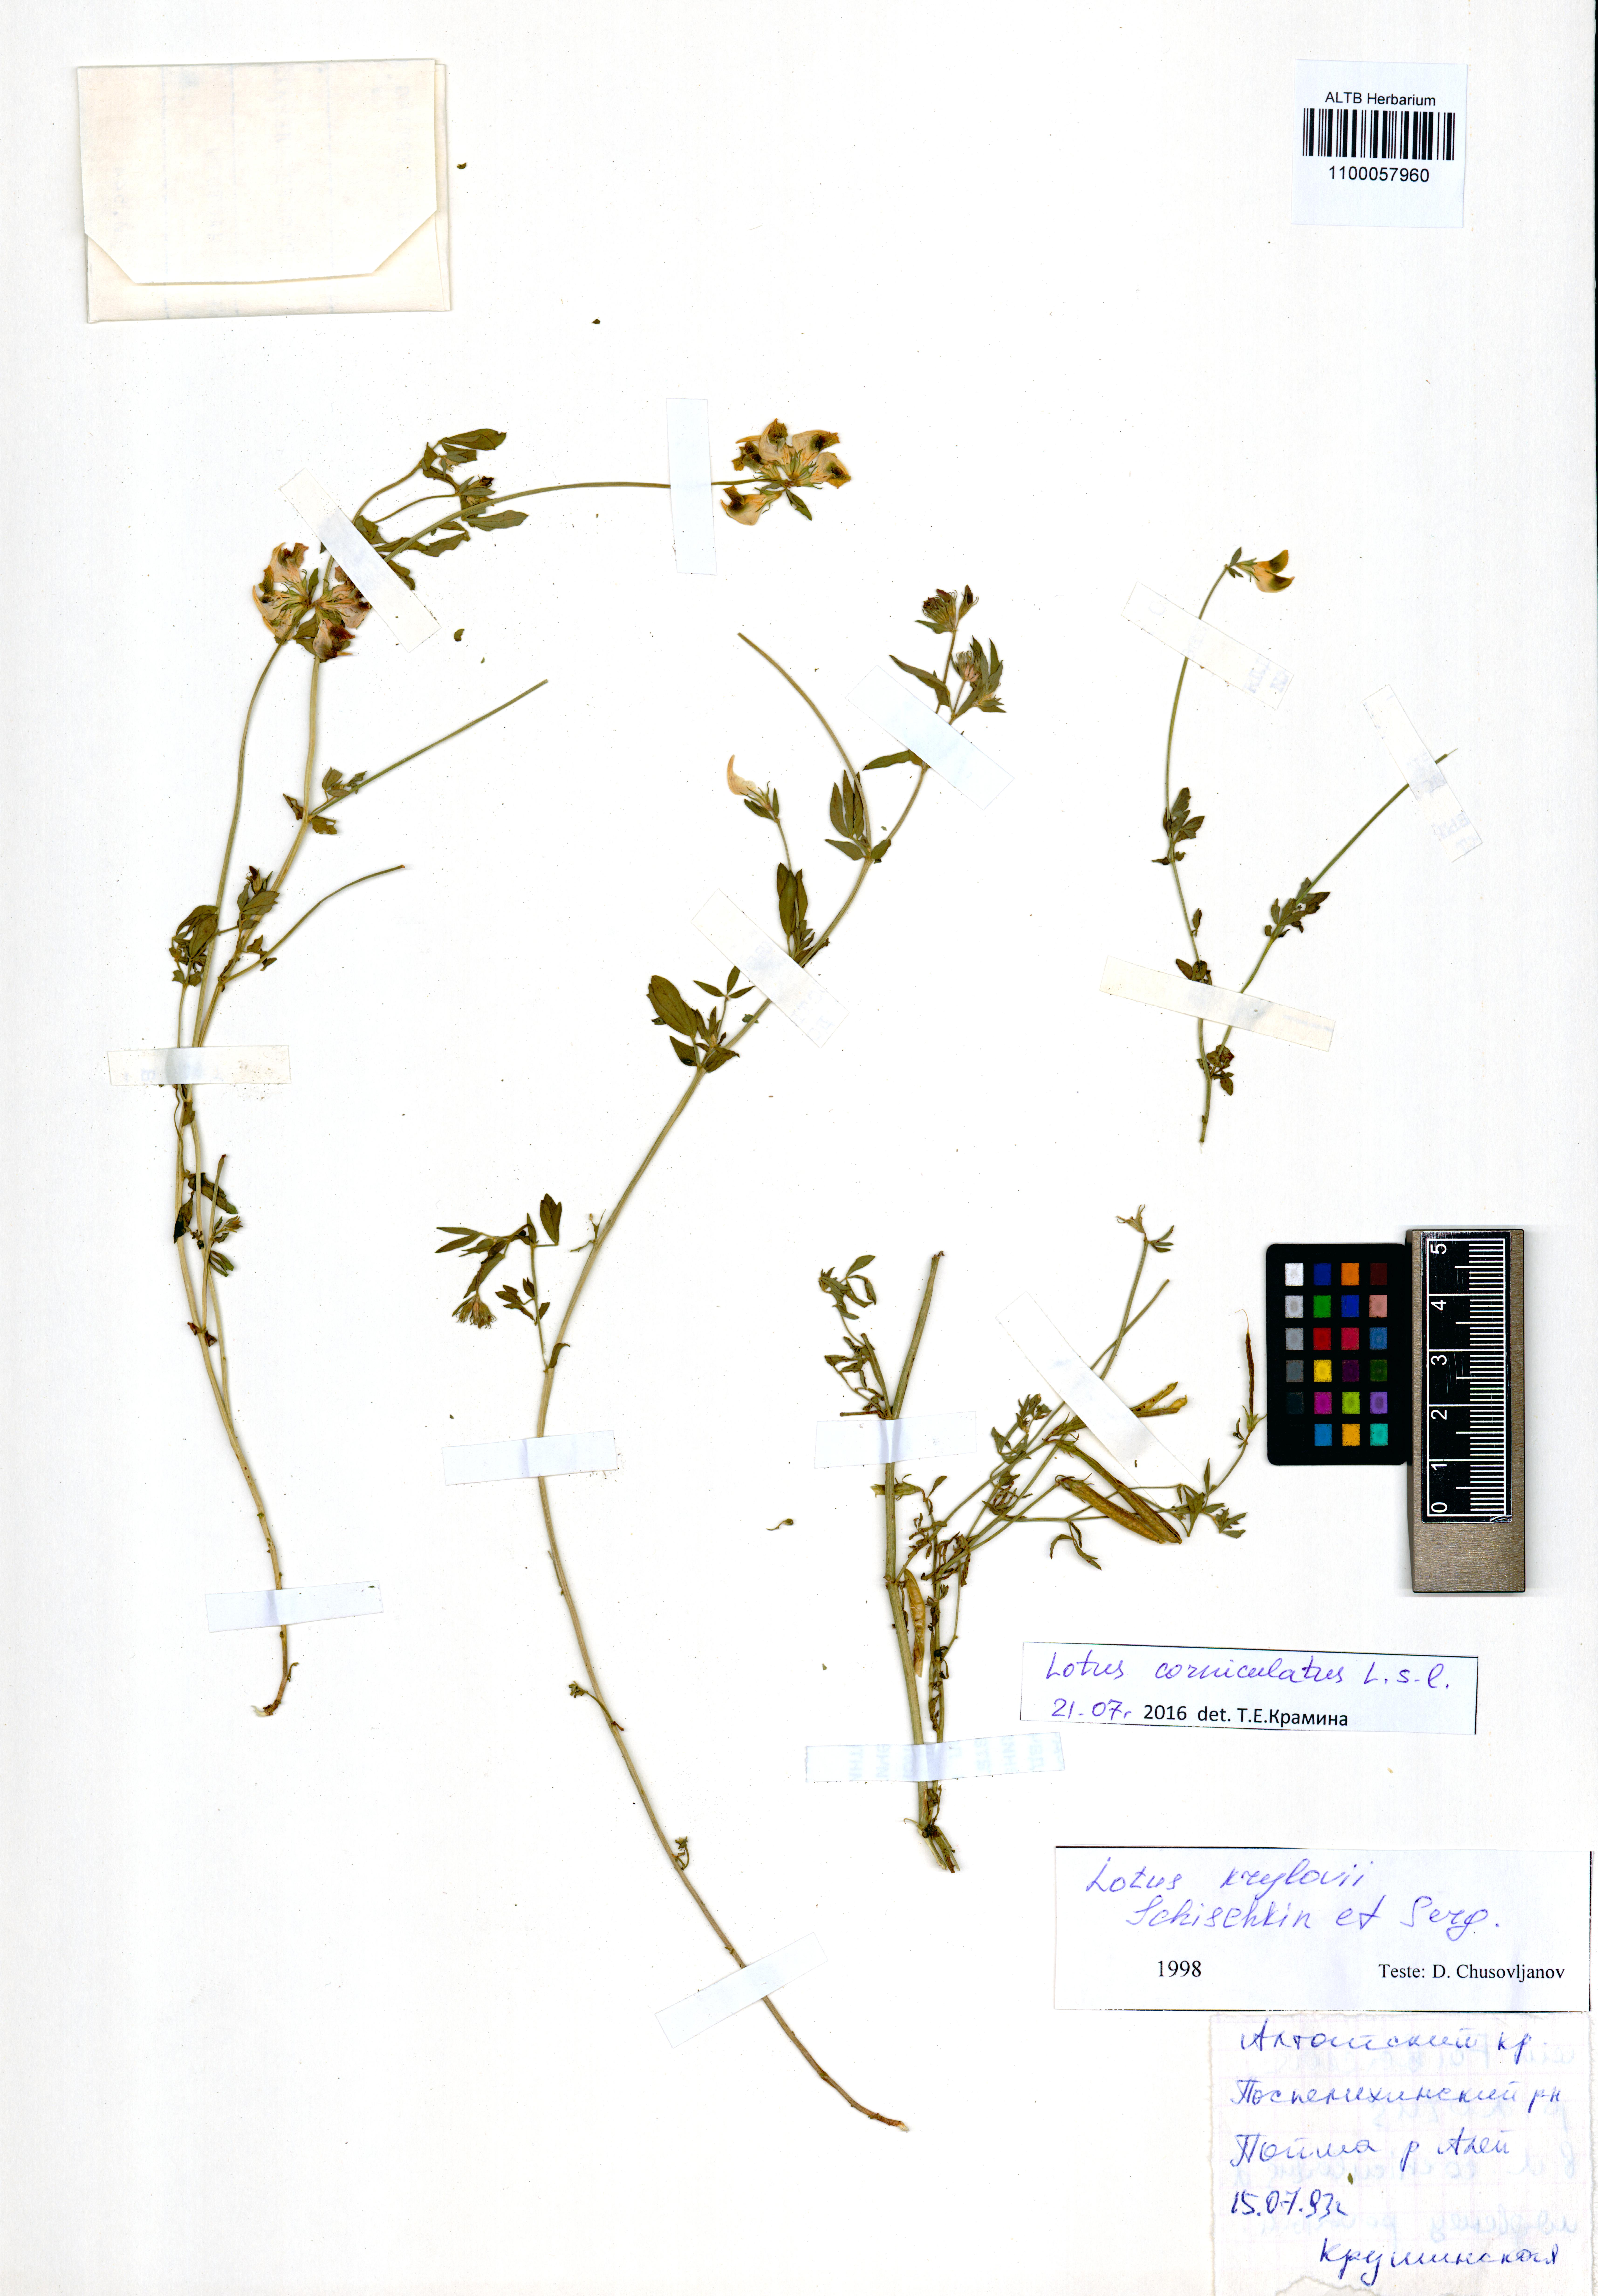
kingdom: Plantae
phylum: Tracheophyta
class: Magnoliopsida
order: Fabales
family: Fabaceae
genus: Lotus
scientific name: Lotus corniculatus
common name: Common bird's-foot-trefoil
